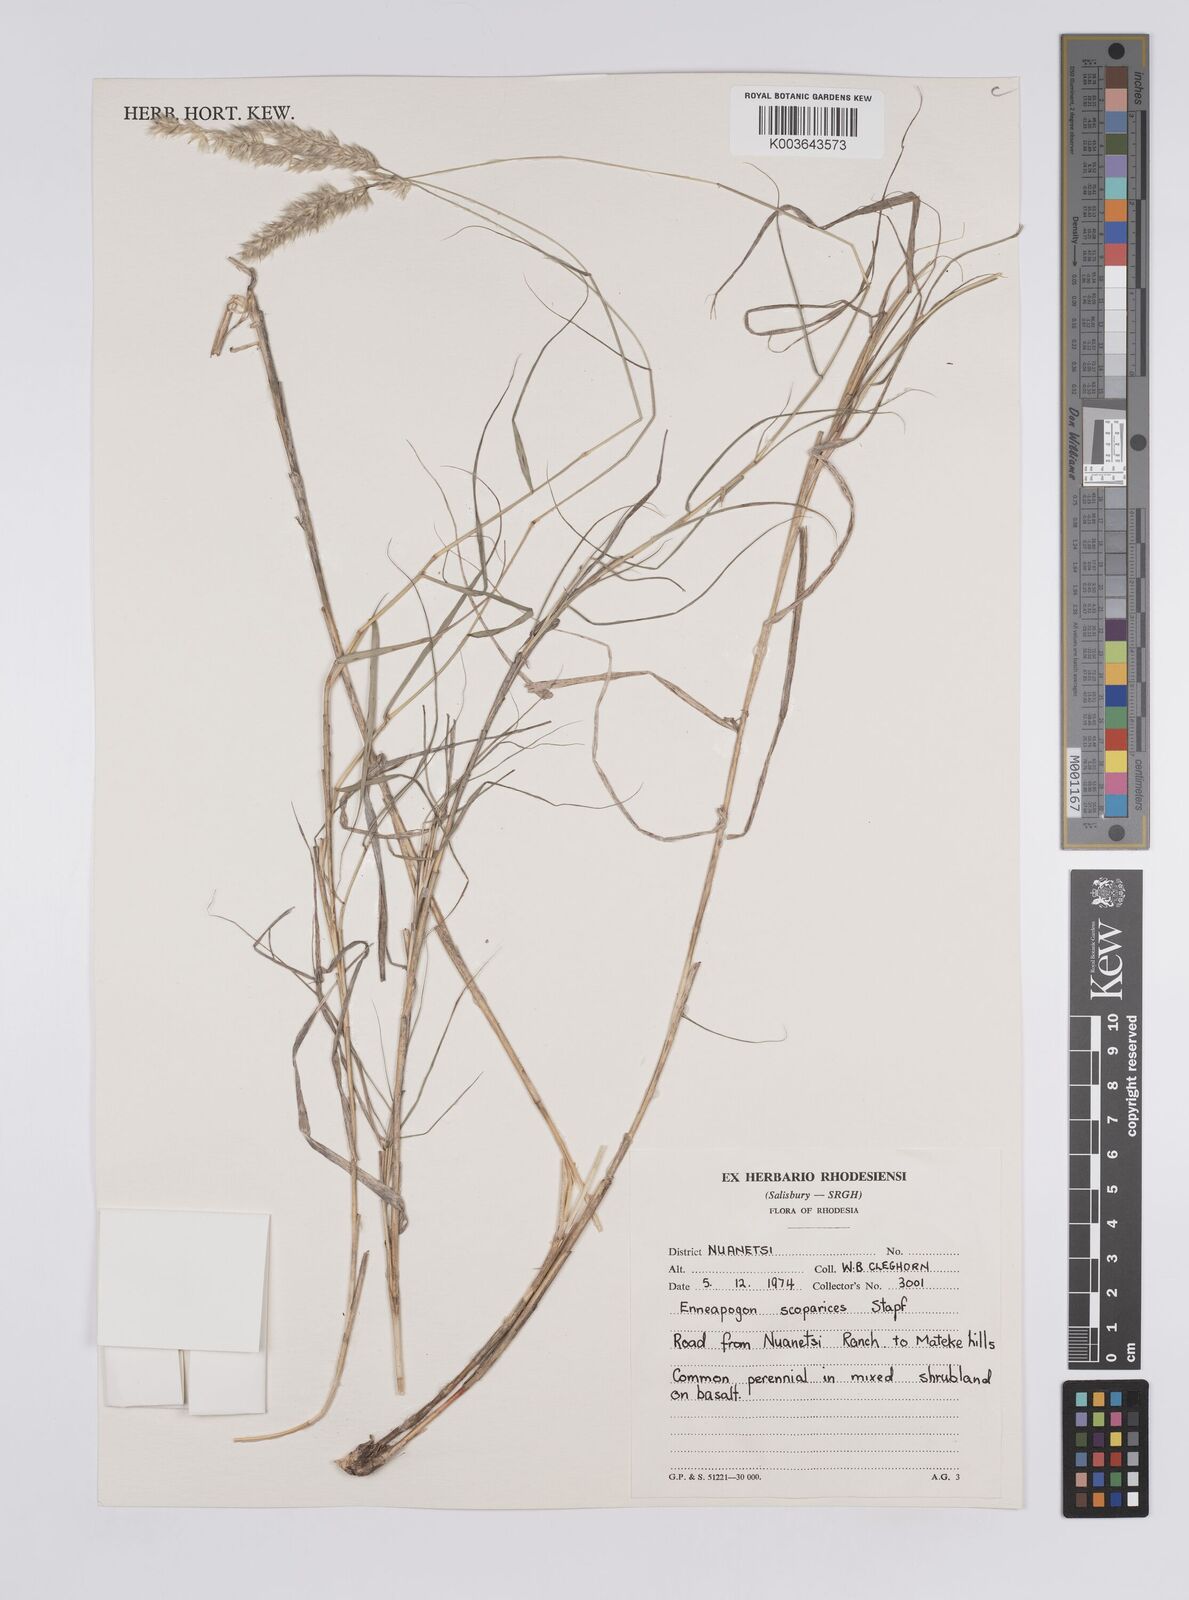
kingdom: Plantae
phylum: Tracheophyta
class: Liliopsida
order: Poales
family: Poaceae
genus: Enneapogon
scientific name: Enneapogon scoparius
